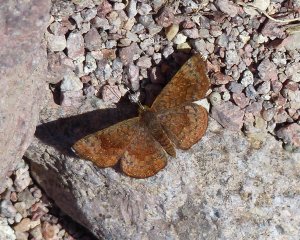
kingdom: Animalia
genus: Calephelis
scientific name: Calephelis nemesis
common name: Fatal Metalmark
